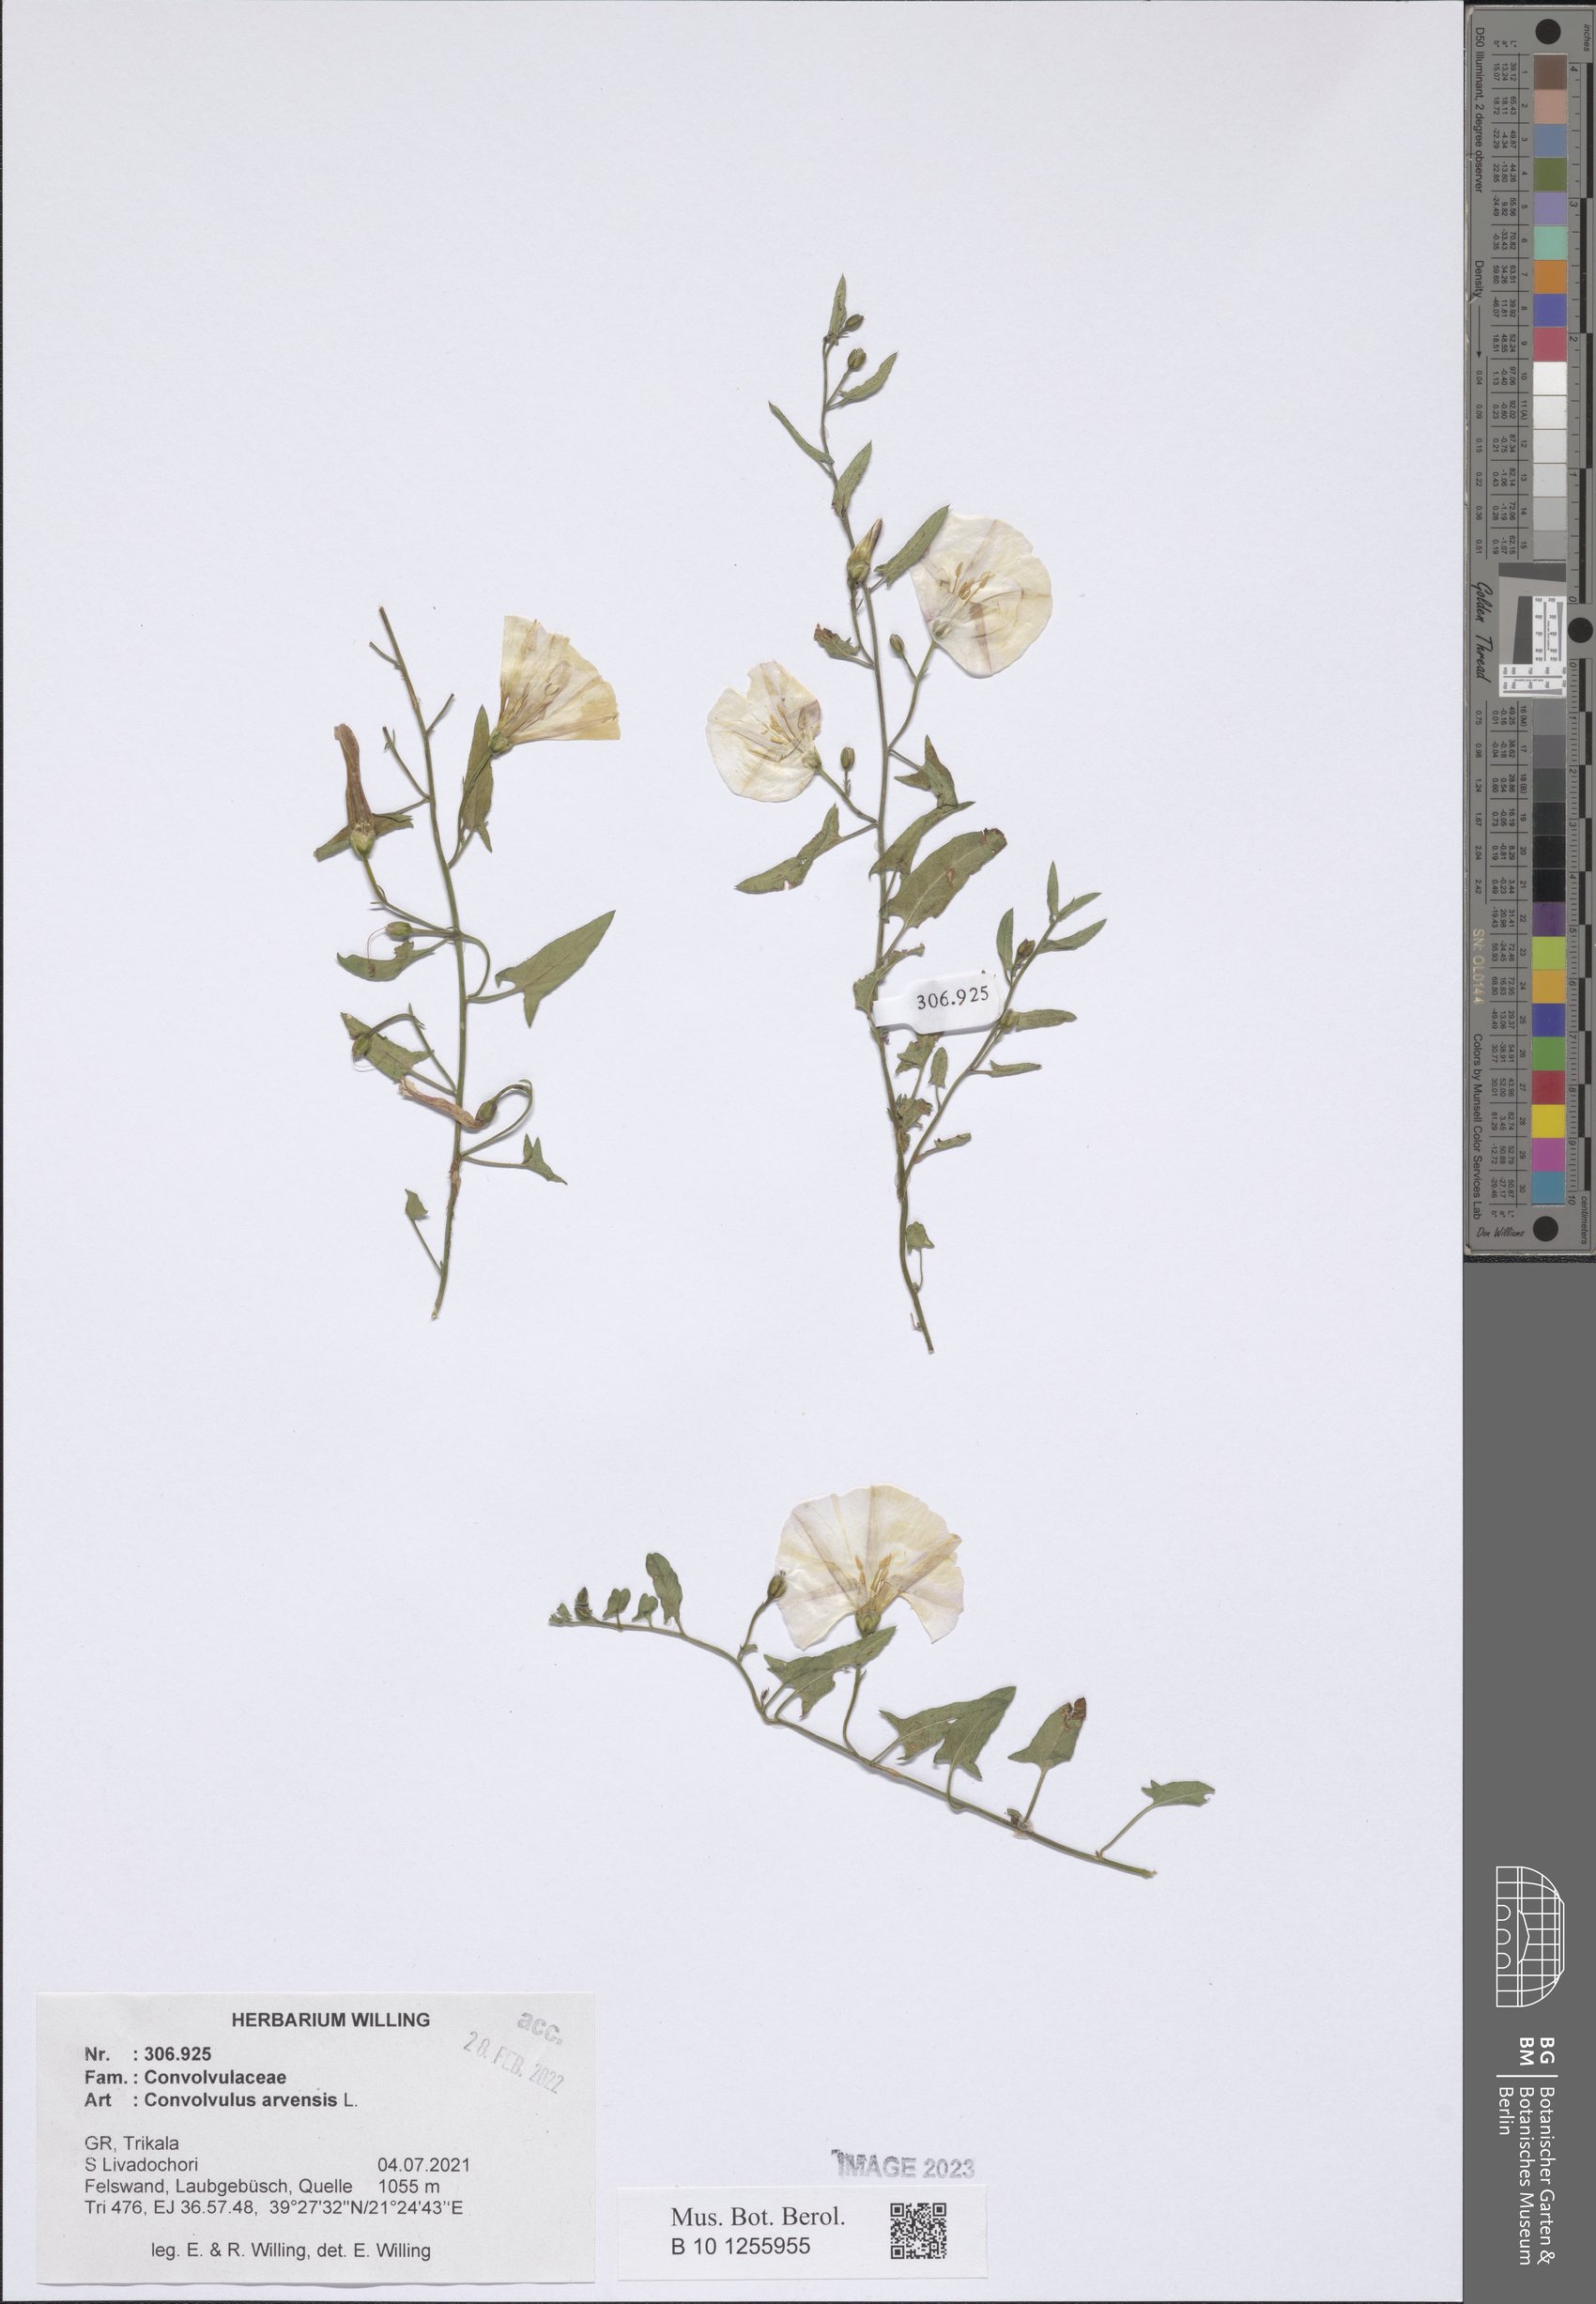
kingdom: Plantae
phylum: Tracheophyta
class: Magnoliopsida
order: Solanales
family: Convolvulaceae
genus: Convolvulus
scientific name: Convolvulus arvensis
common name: Field bindweed
